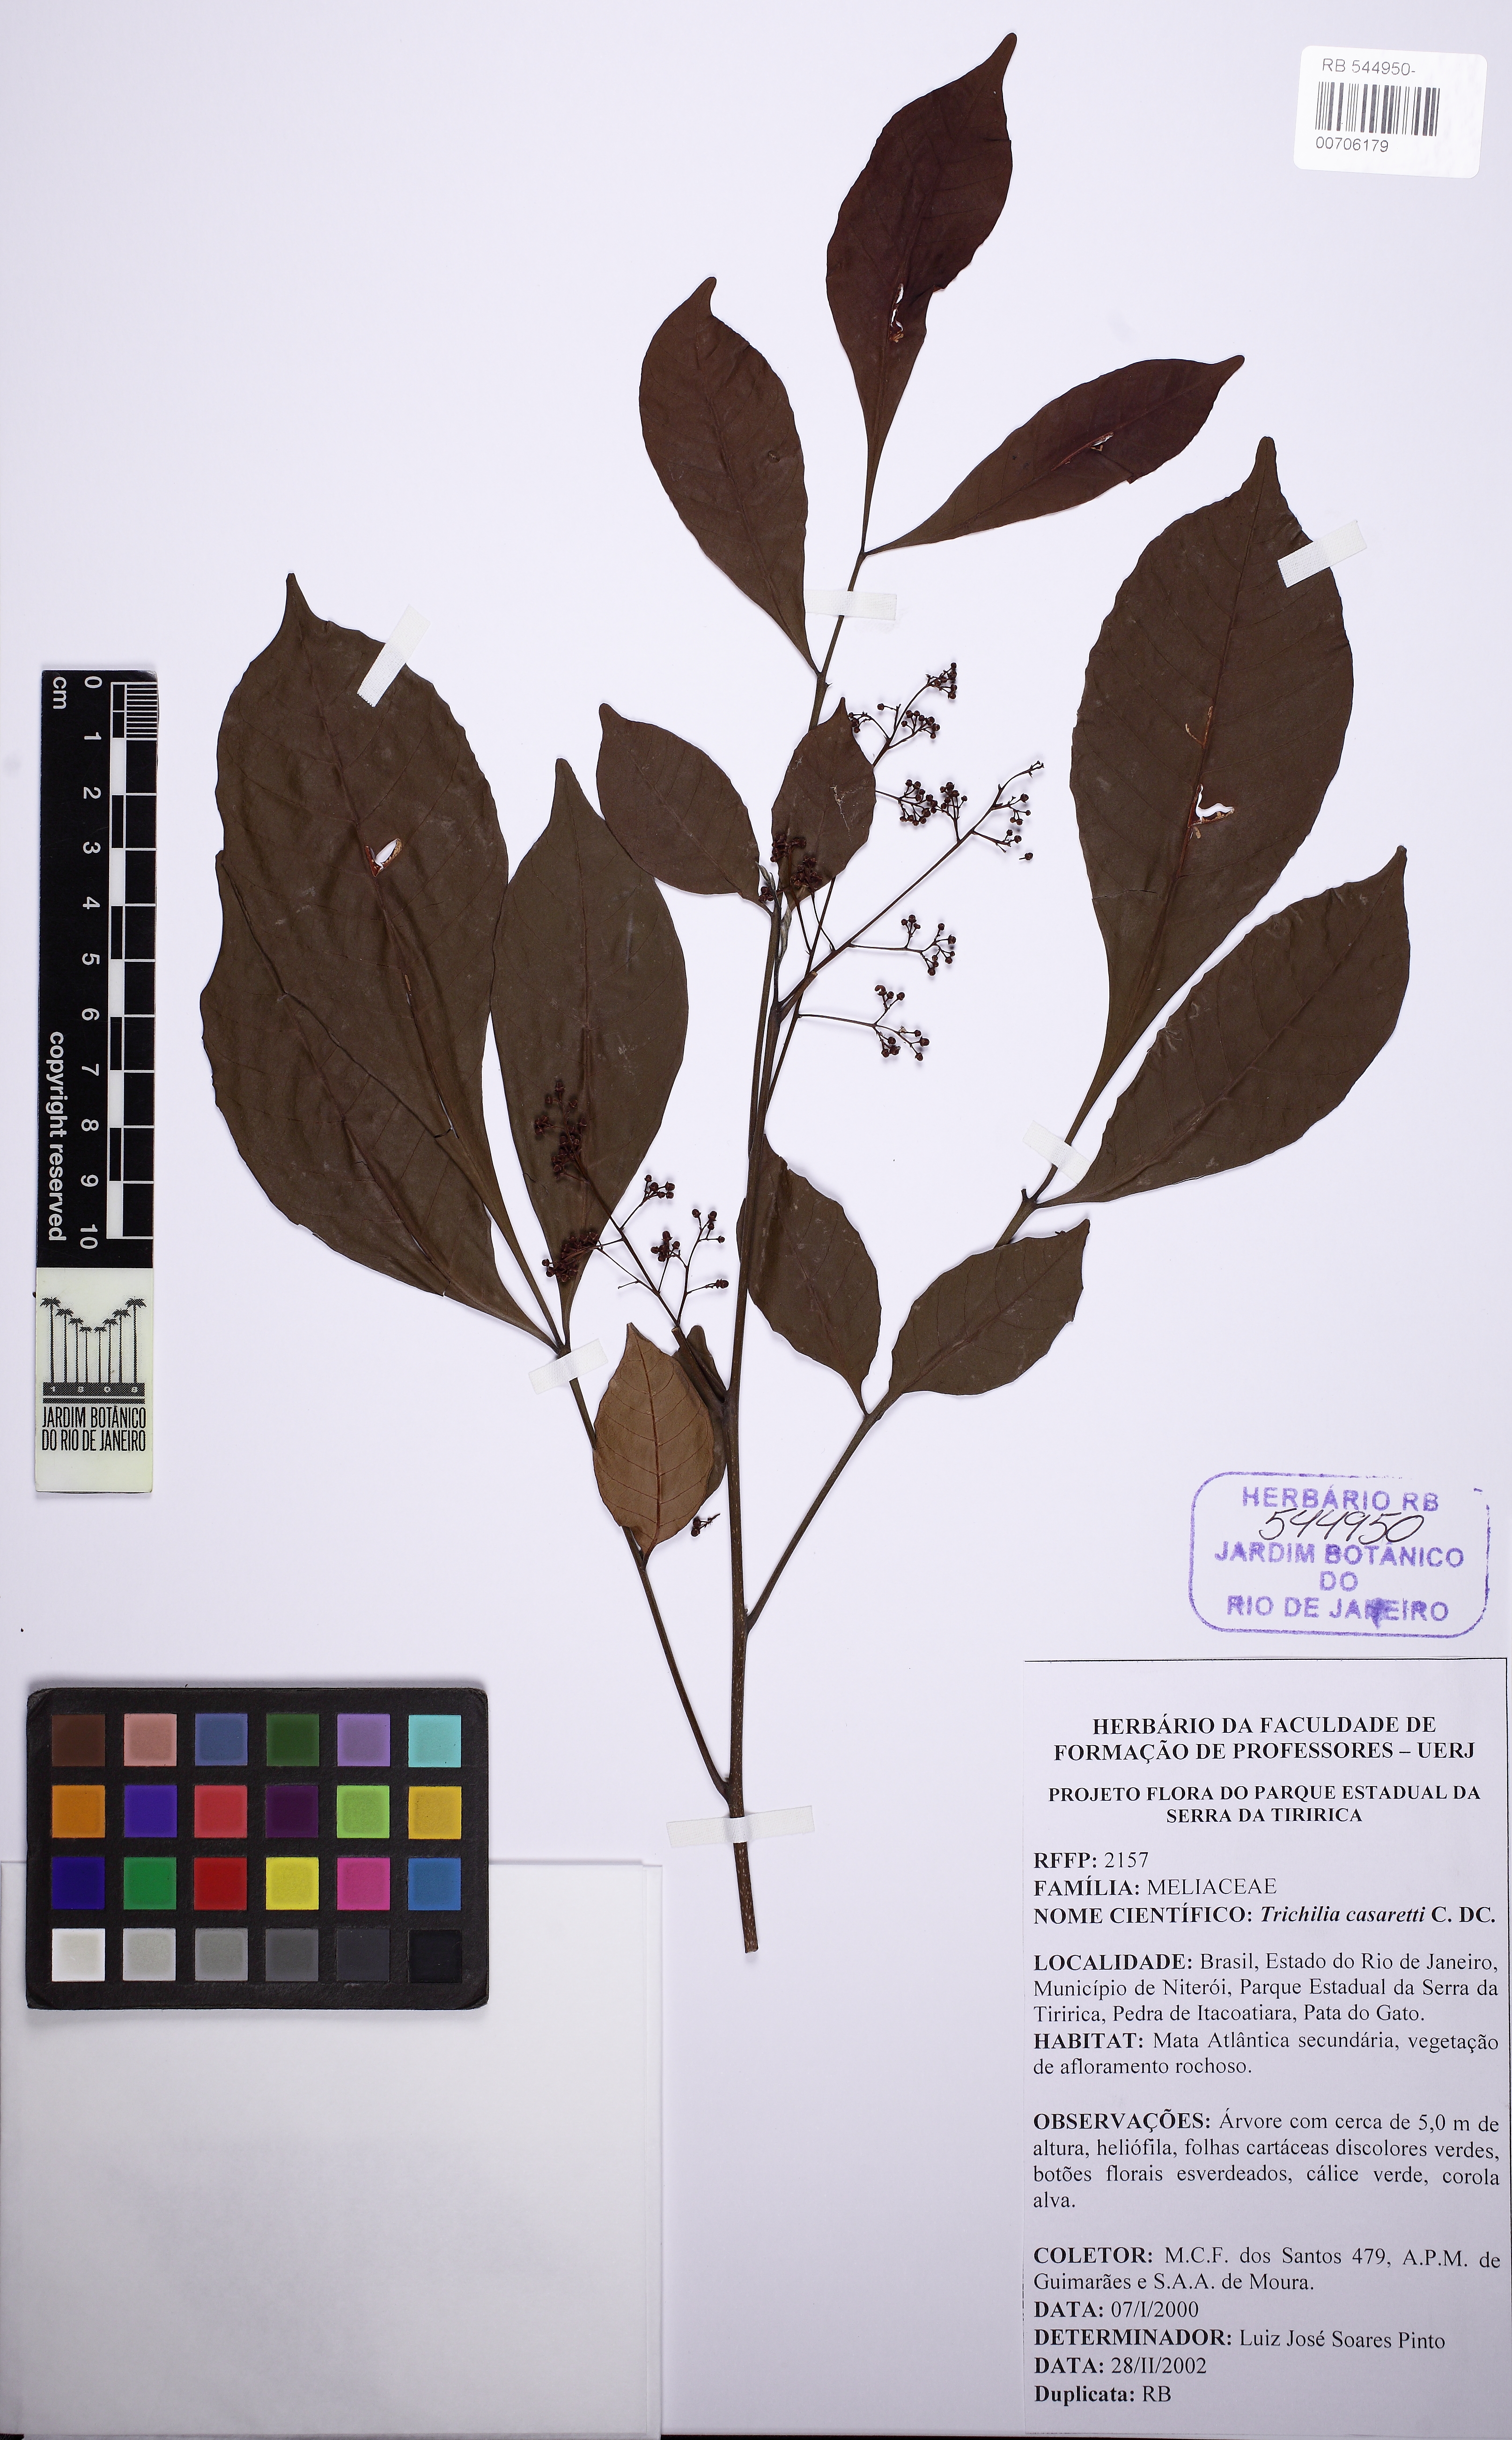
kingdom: Plantae
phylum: Tracheophyta
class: Magnoliopsida
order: Sapindales
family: Meliaceae
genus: Trichilia
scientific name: Trichilia casaretti
